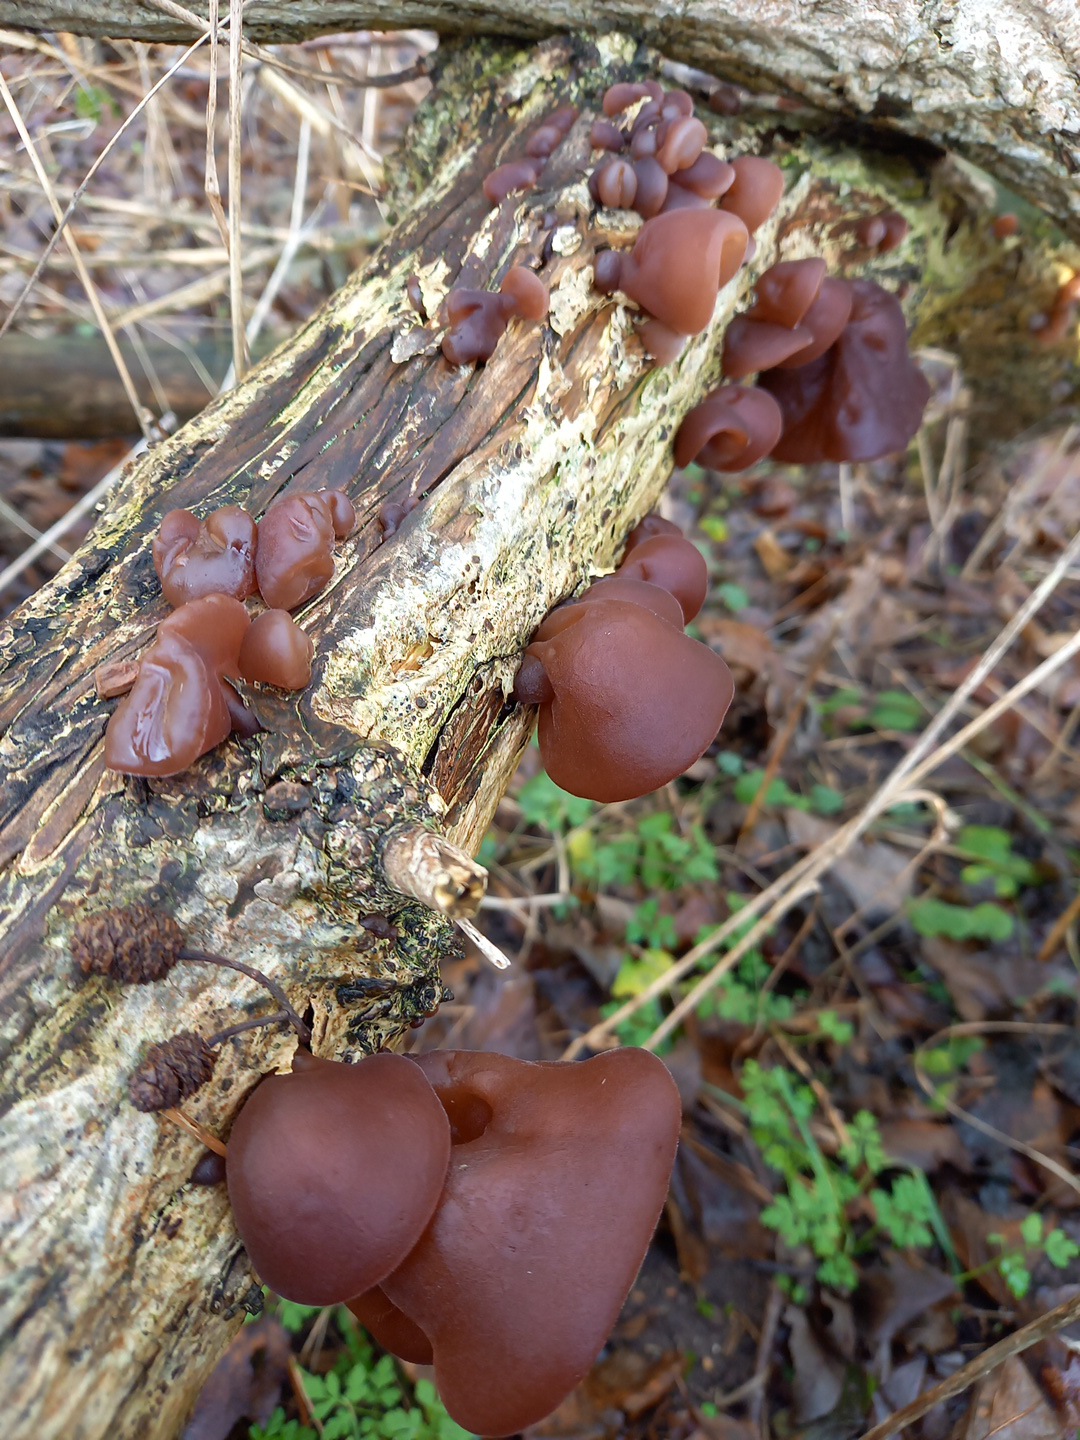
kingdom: Fungi
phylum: Basidiomycota
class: Agaricomycetes
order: Auriculariales
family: Auriculariaceae
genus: Auricularia
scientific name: Auricularia auricula-judae
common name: almindelig judasøre
